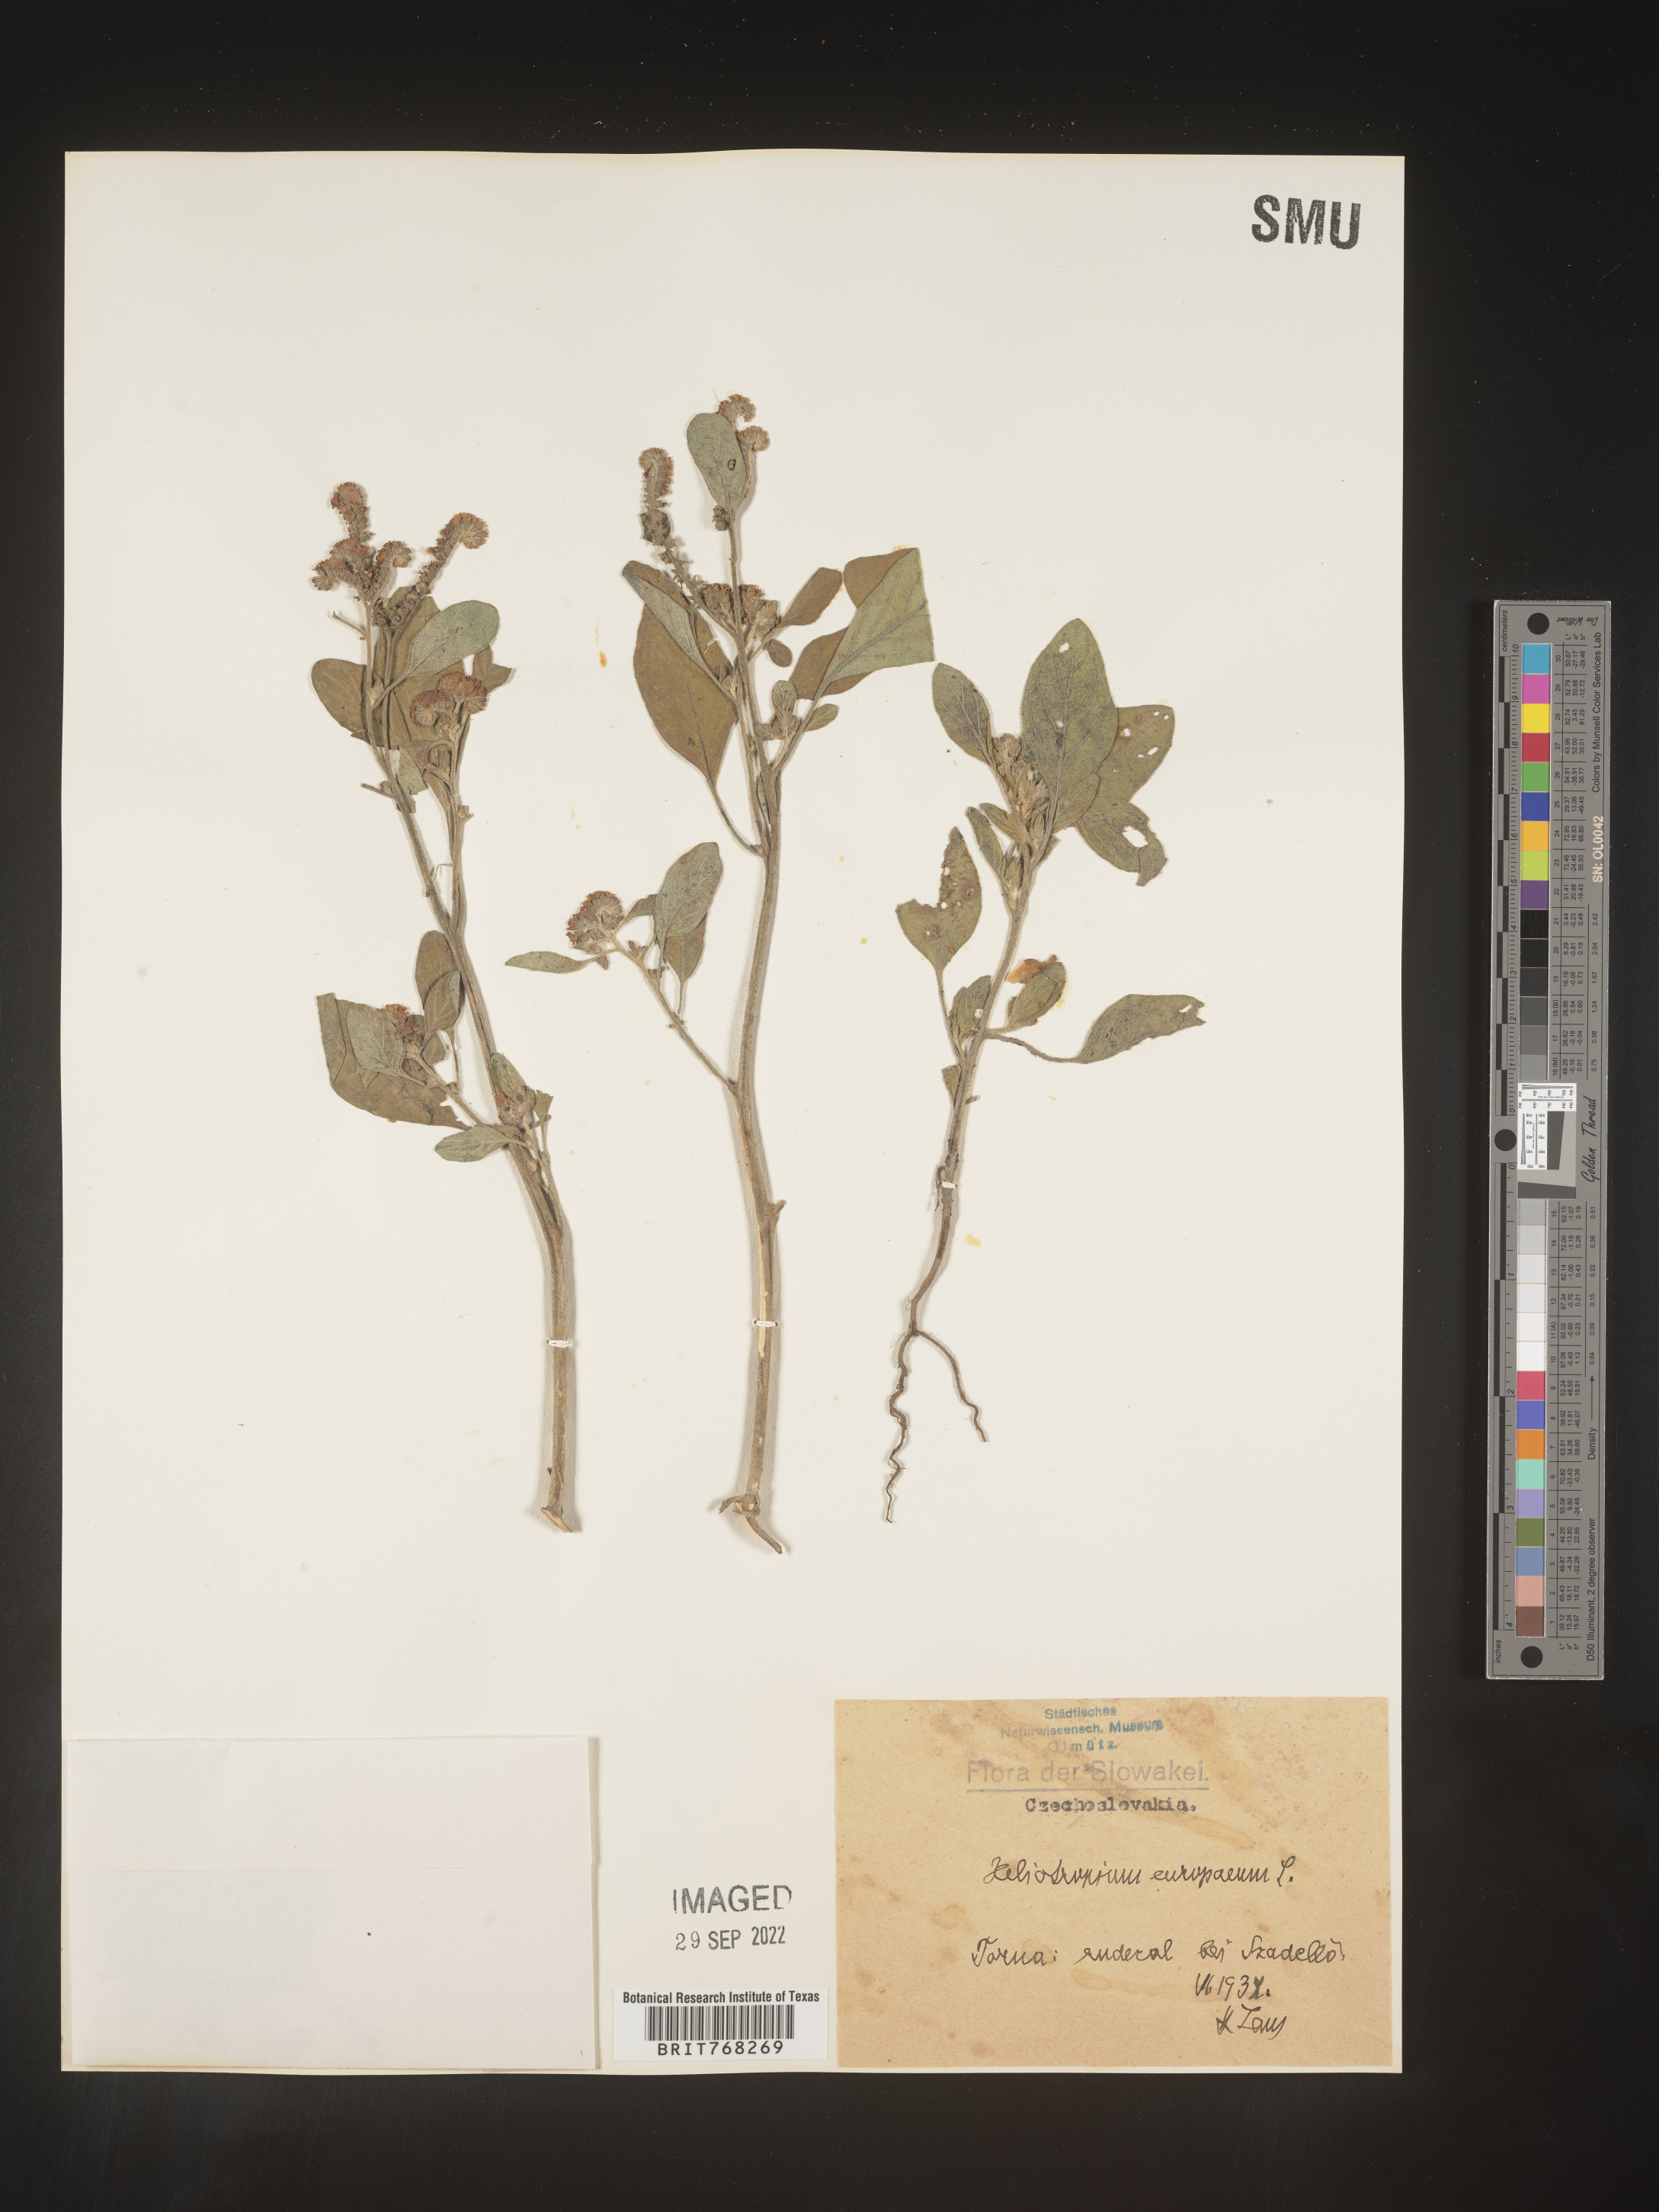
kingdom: Plantae
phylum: Tracheophyta
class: Magnoliopsida
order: Boraginales
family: Heliotropiaceae
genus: Heliotropium
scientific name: Heliotropium
